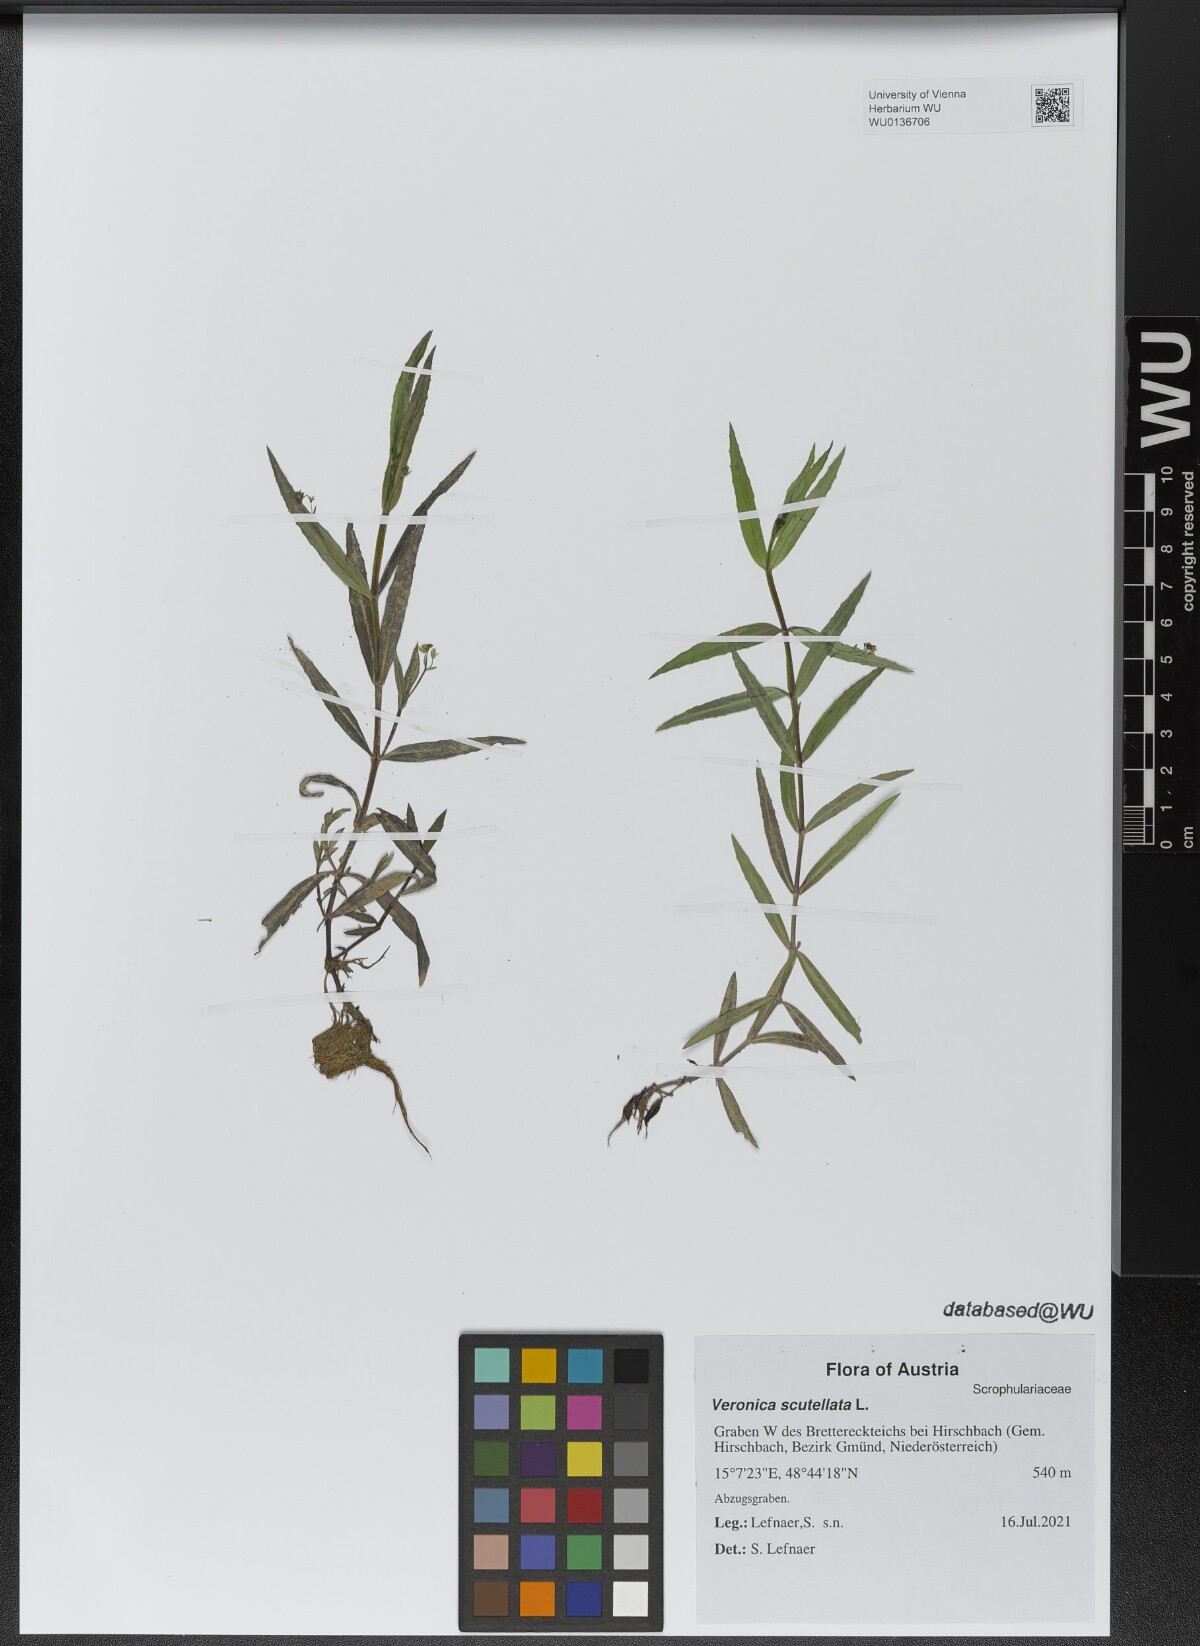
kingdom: Plantae
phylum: Tracheophyta
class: Magnoliopsida
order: Lamiales
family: Plantaginaceae
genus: Veronica
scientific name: Veronica scutellata
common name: Marsh speedwell
